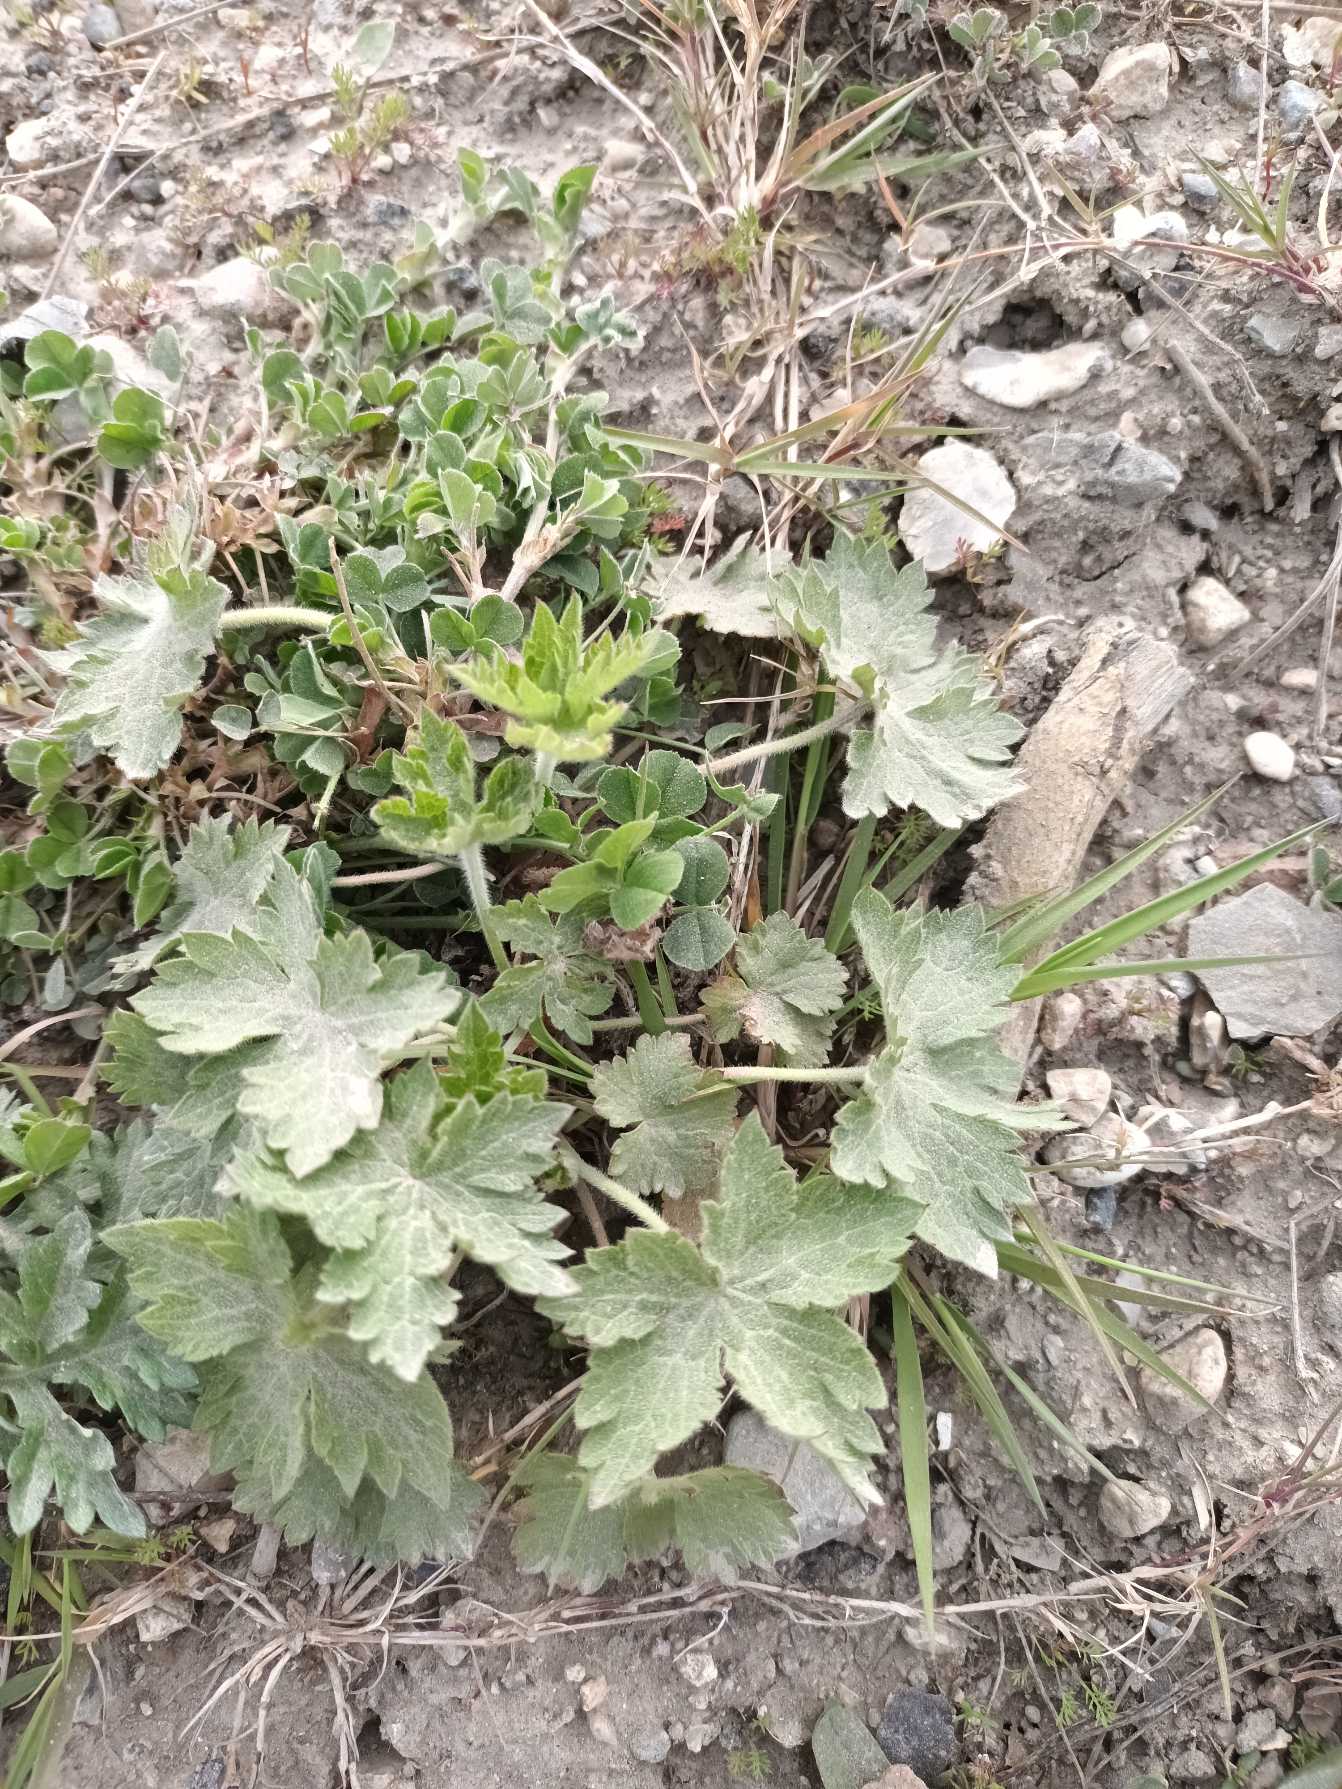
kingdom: Plantae
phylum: Tracheophyta
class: Magnoliopsida
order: Geraniales
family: Geraniaceae
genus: Geranium
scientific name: Geranium phaeum
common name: Bølgekronet storkenæb
